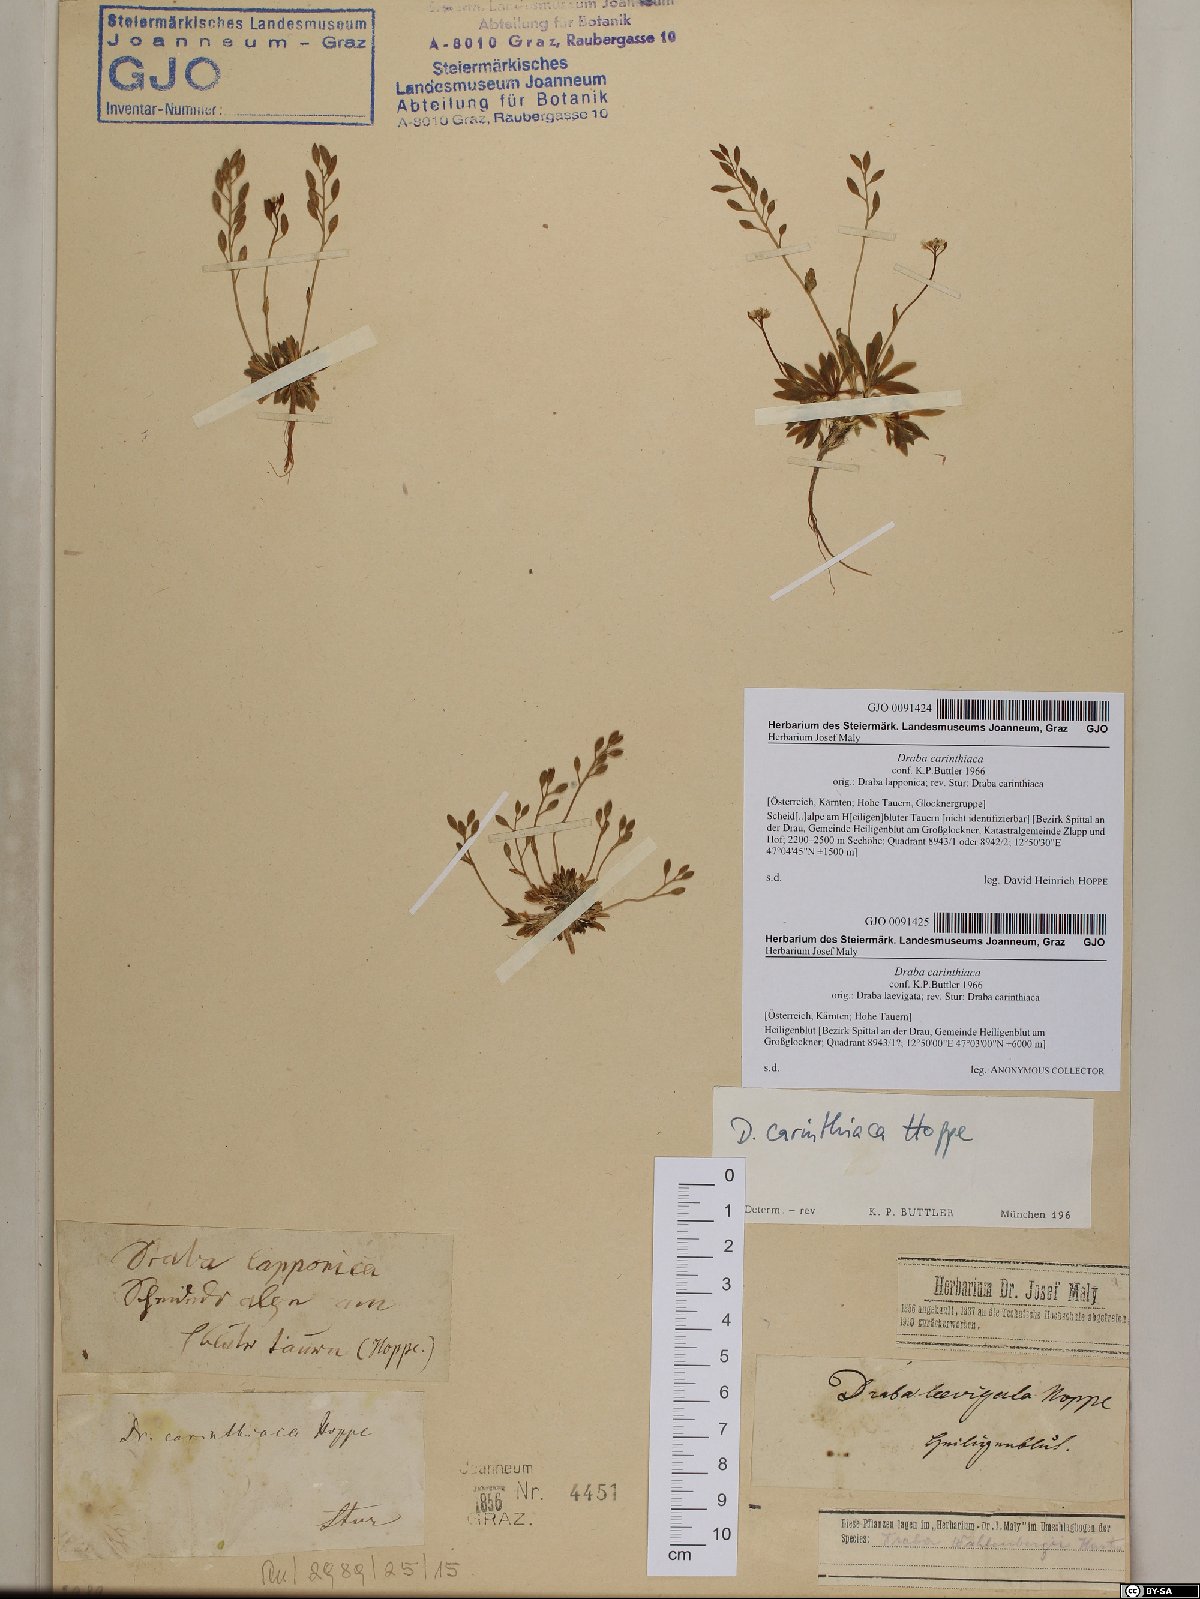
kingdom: Plantae
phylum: Tracheophyta
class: Magnoliopsida
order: Brassicales
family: Brassicaceae
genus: Draba
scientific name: Draba siliquosa
